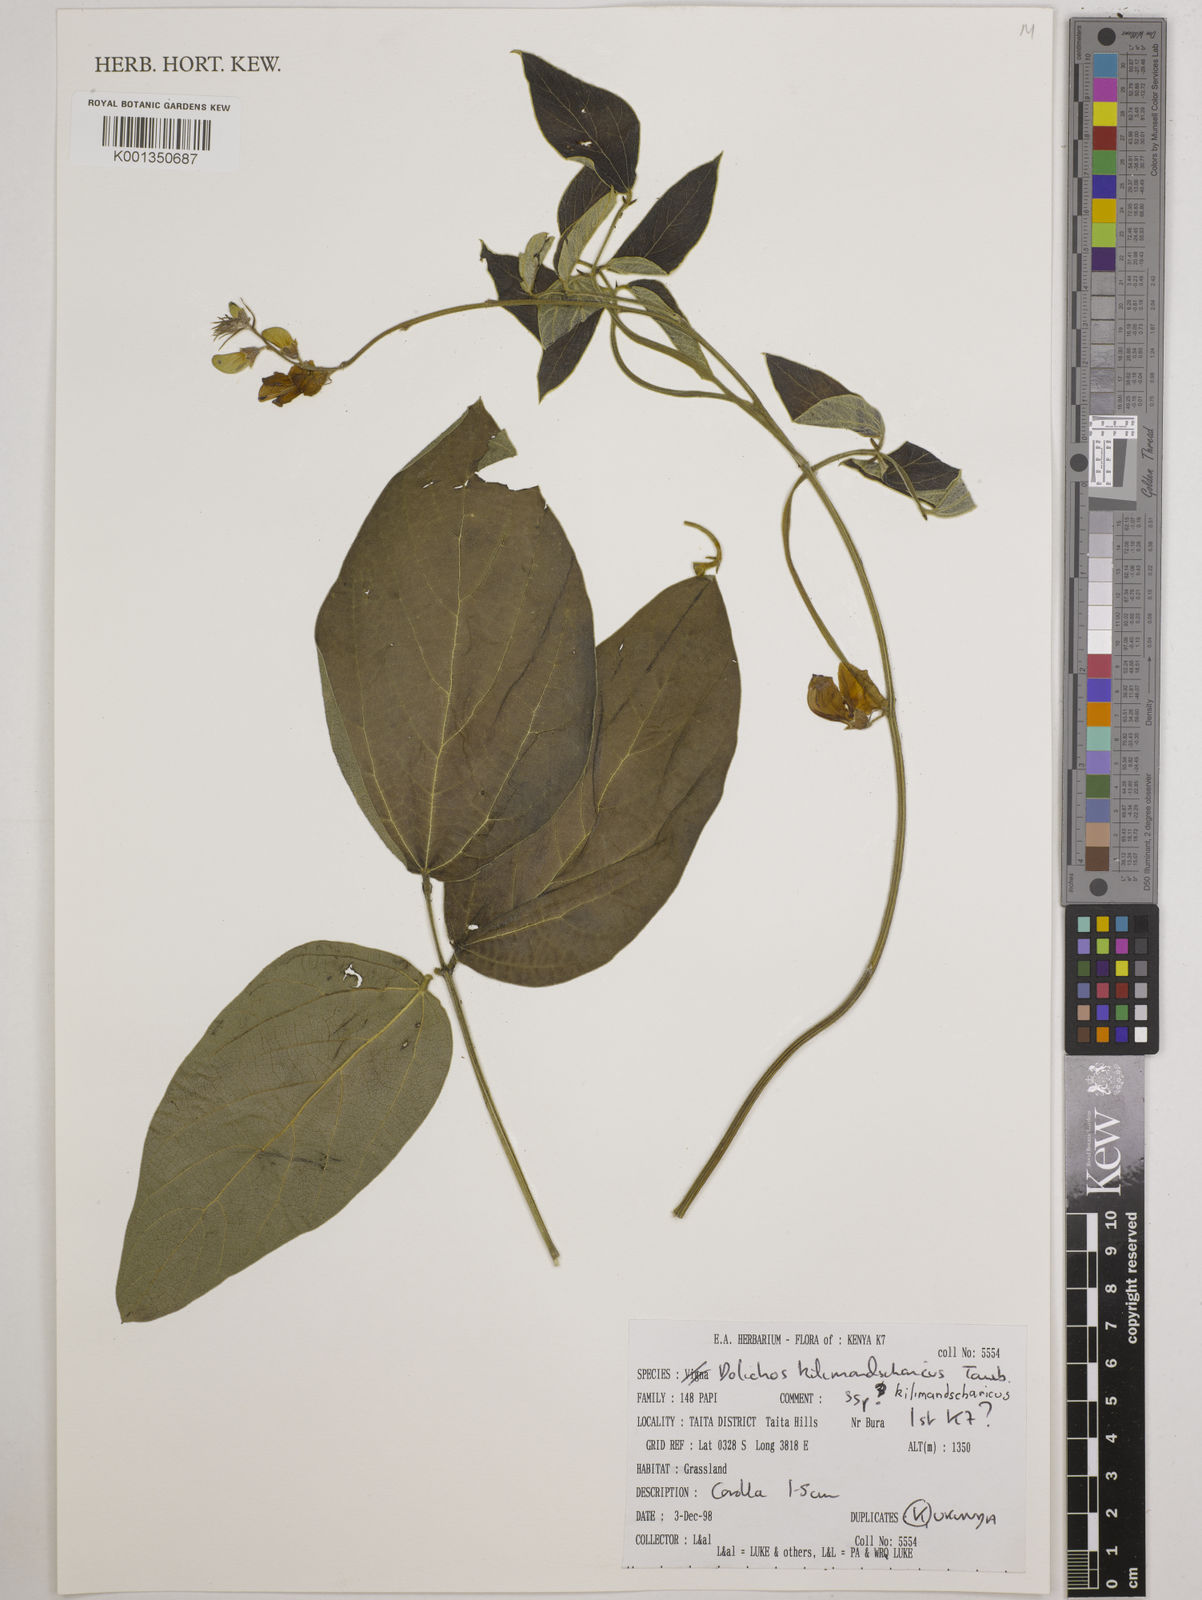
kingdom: Plantae
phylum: Tracheophyta
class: Magnoliopsida
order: Fabales
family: Fabaceae
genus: Dolichos
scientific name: Dolichos
